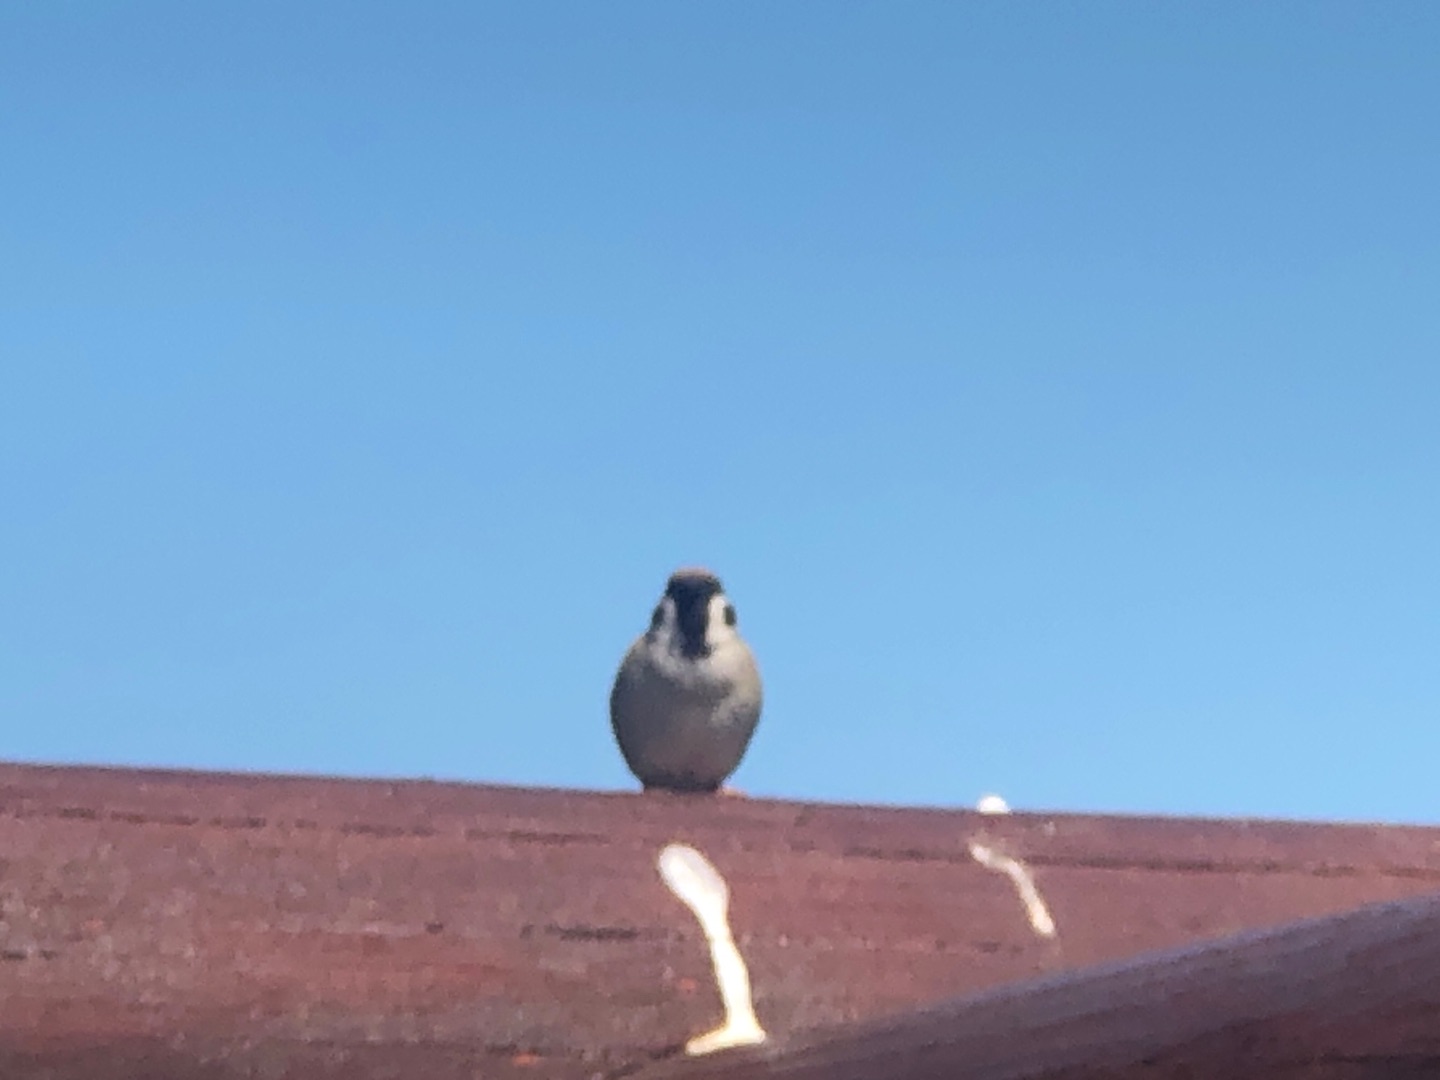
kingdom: Animalia
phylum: Chordata
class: Aves
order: Passeriformes
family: Passeridae
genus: Passer
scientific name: Passer montanus
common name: Skovspurv
